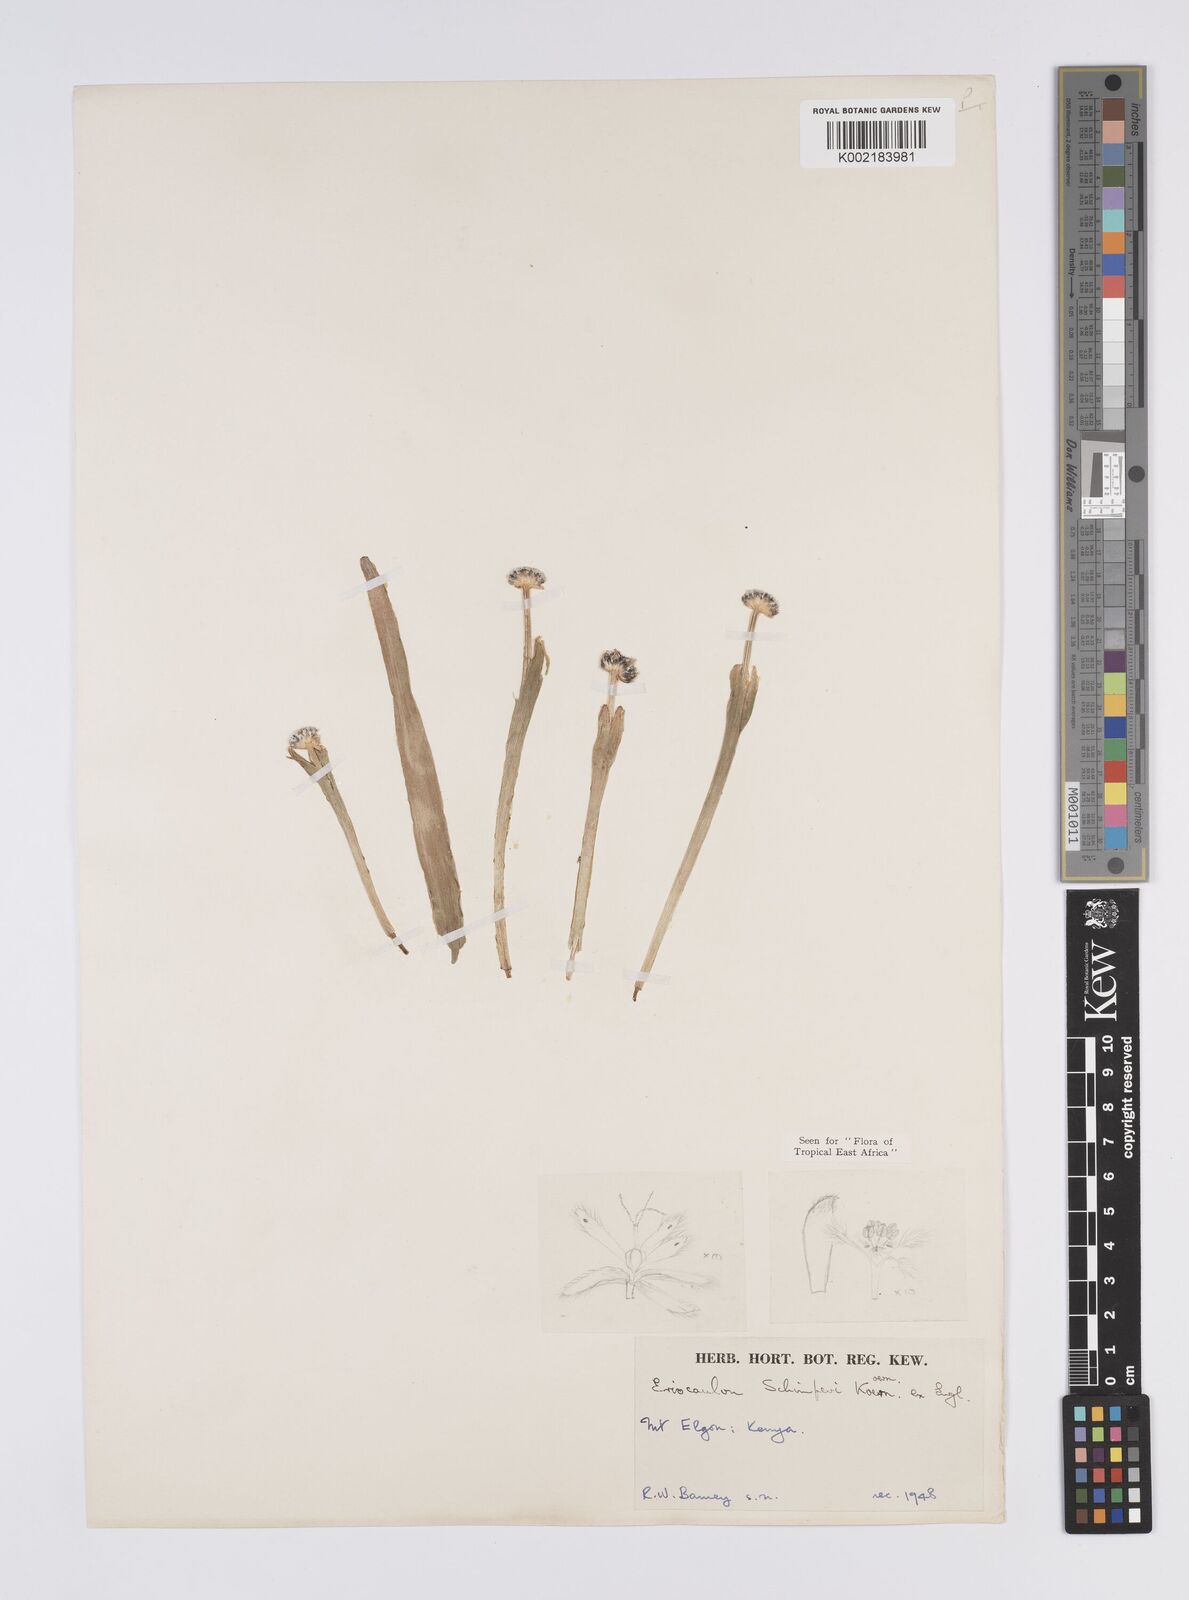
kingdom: Plantae
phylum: Tracheophyta
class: Liliopsida
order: Poales
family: Eriocaulaceae
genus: Eriocaulon
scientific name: Eriocaulon schimperi
